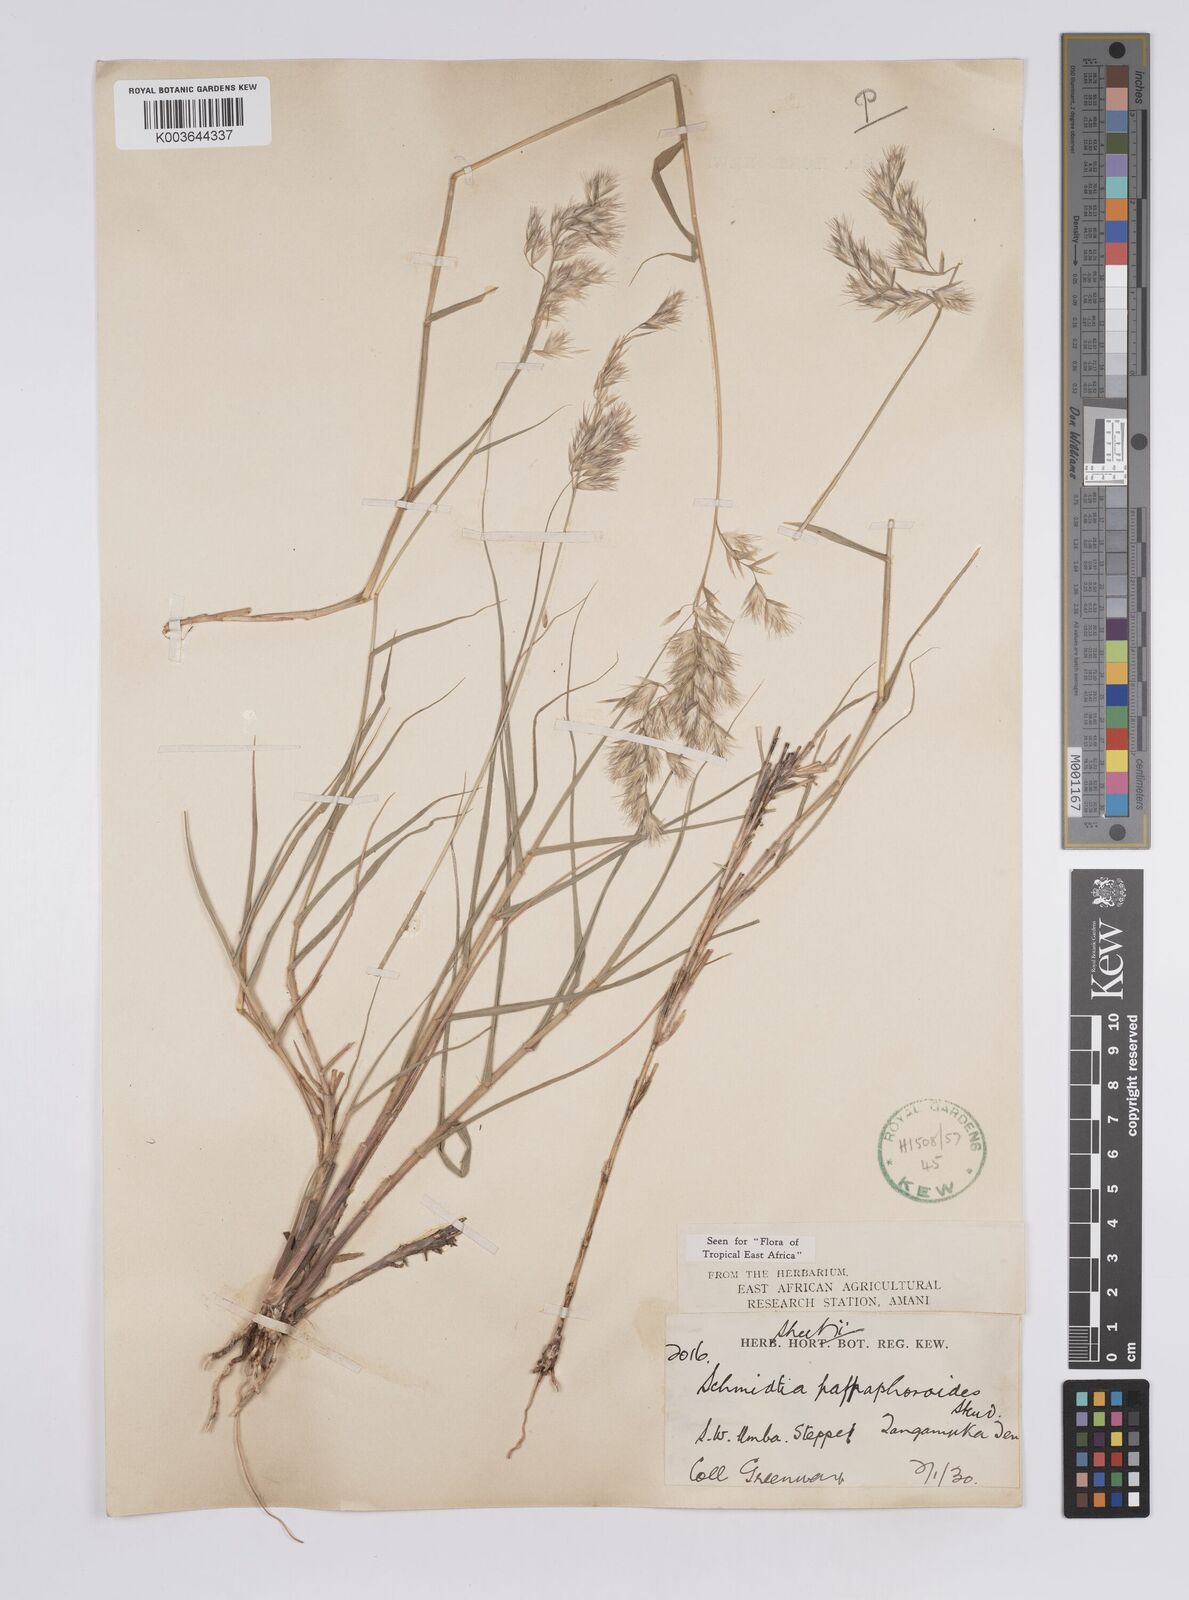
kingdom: Plantae
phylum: Tracheophyta
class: Liliopsida
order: Poales
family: Poaceae
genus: Schmidtia
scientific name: Schmidtia pappophoroides
